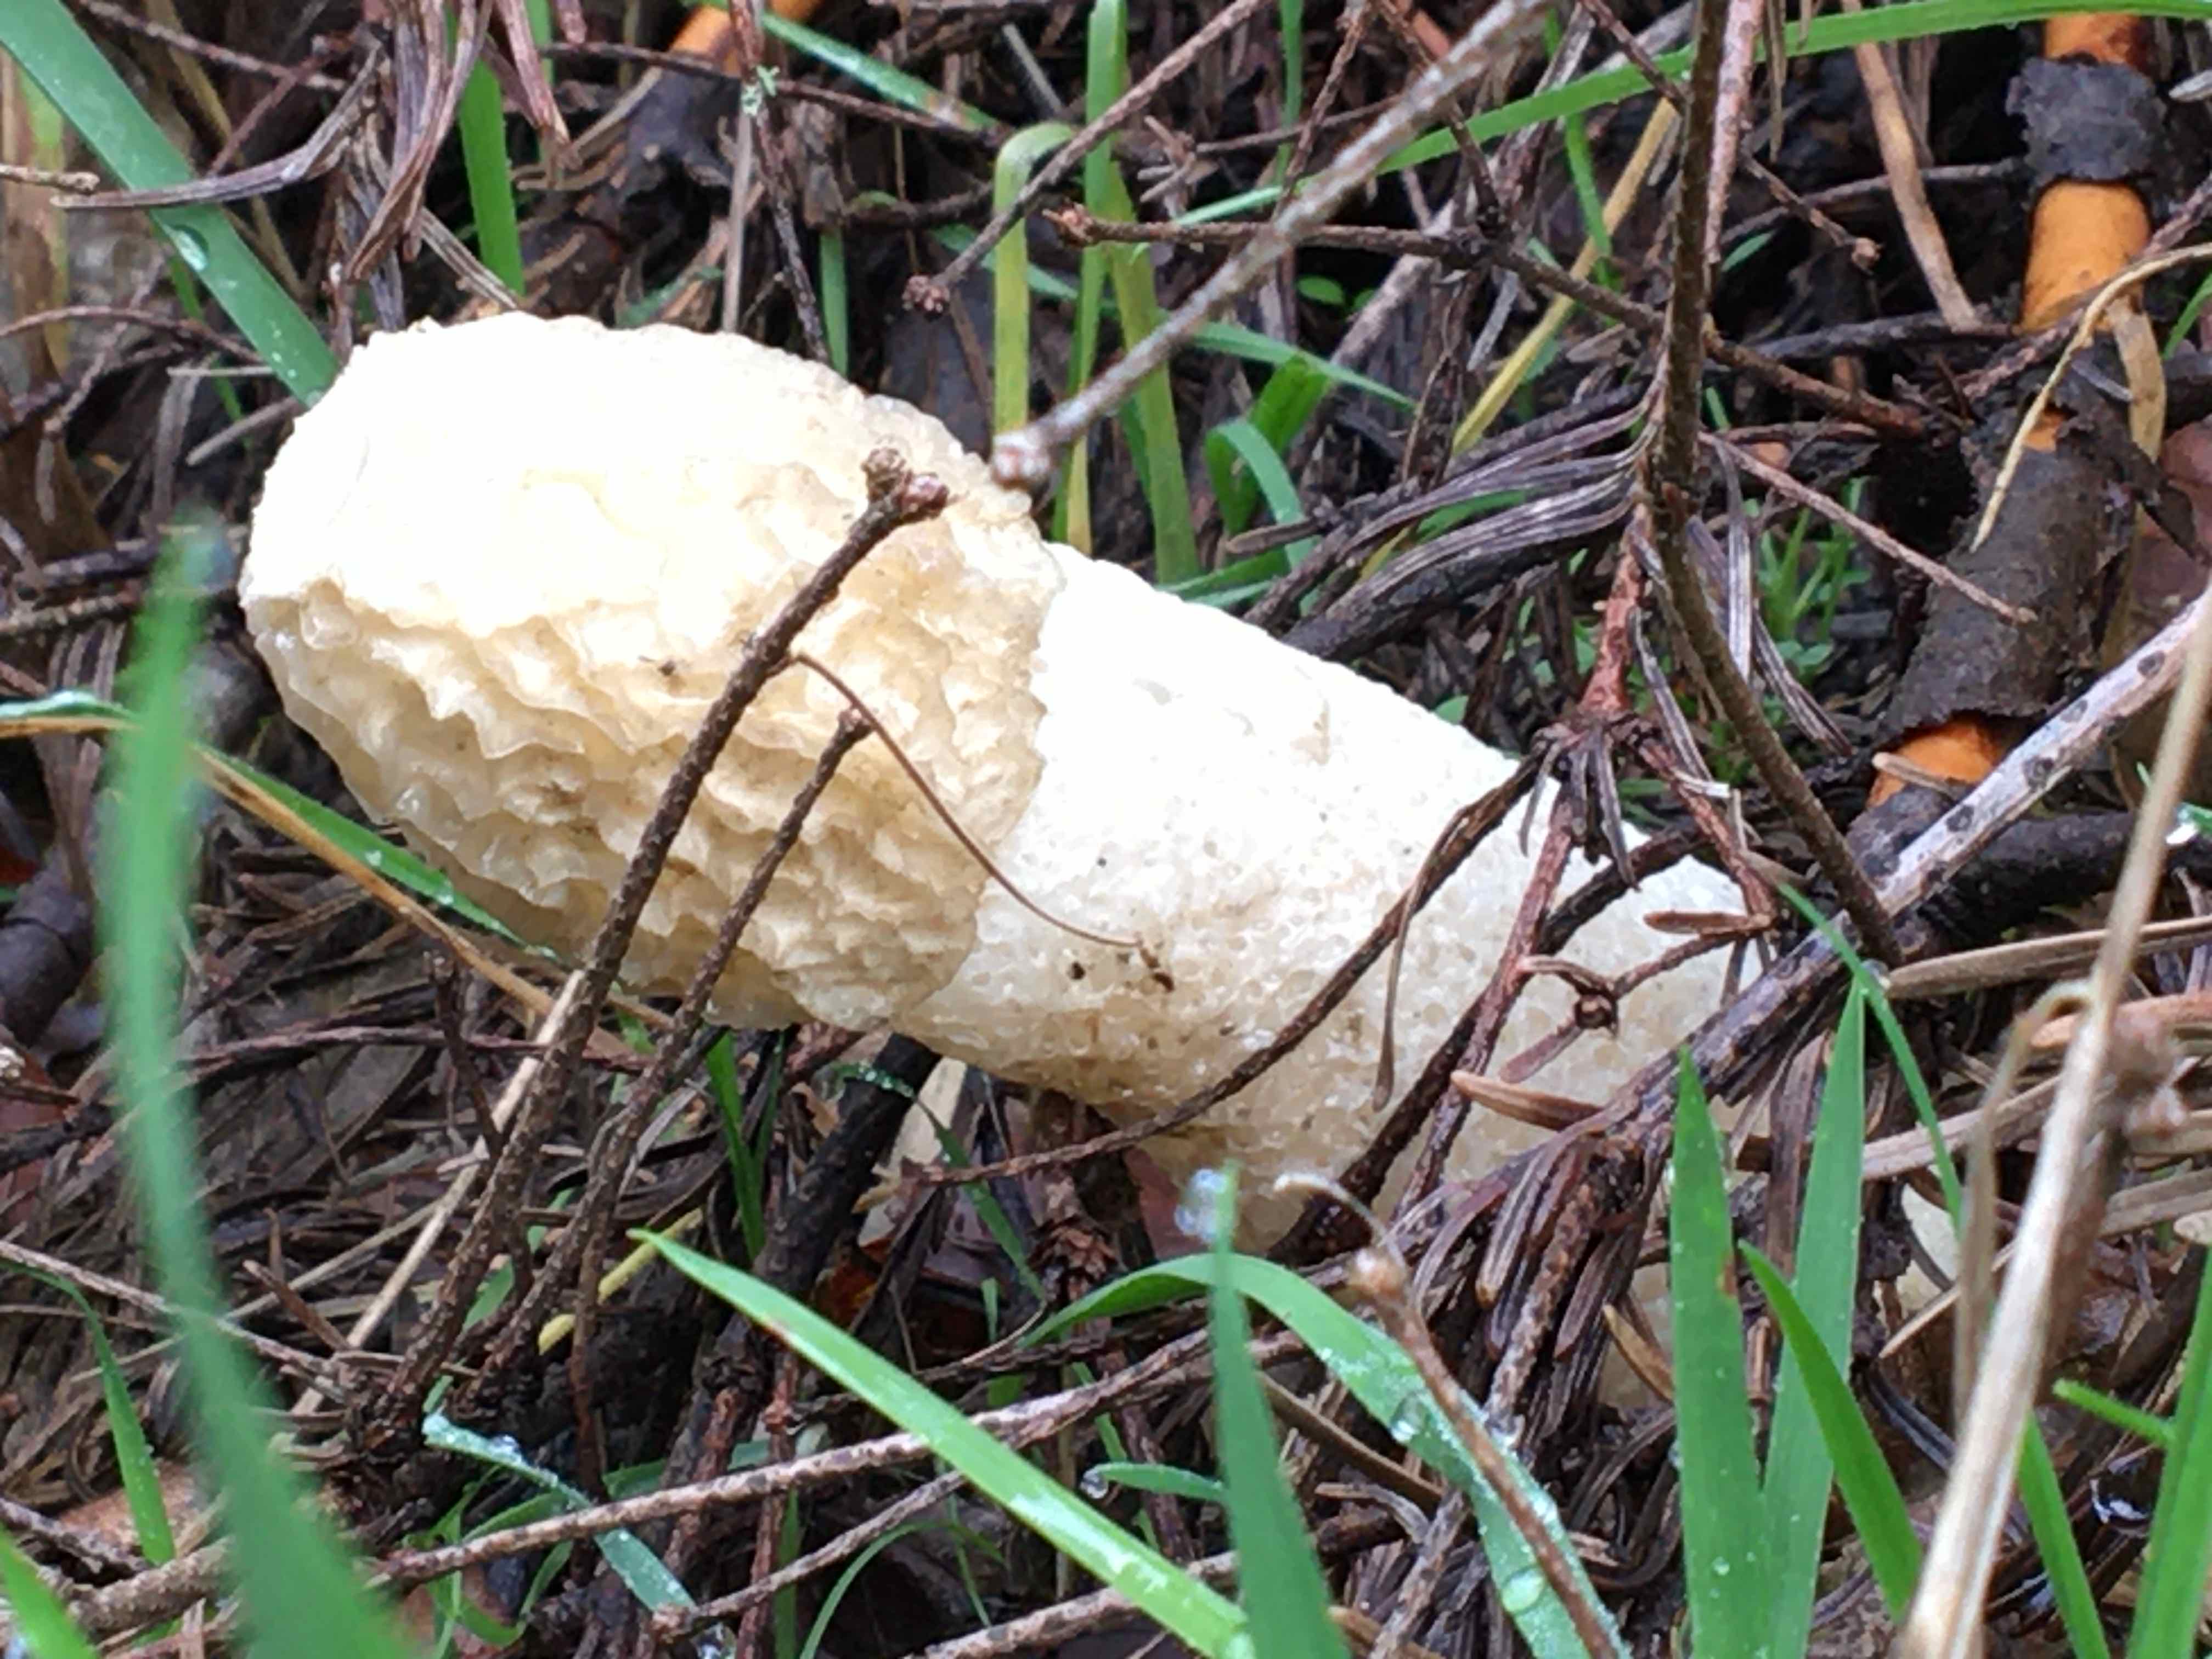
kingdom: Fungi
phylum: Basidiomycota
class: Agaricomycetes
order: Phallales
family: Phallaceae
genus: Phallus
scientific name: Phallus impudicus
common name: almindelig stinksvamp
